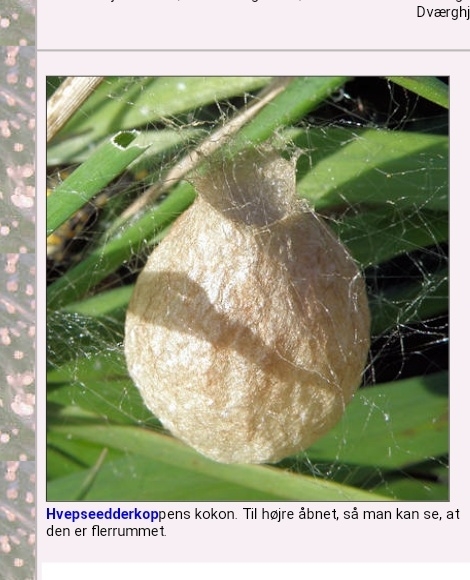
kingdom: Animalia
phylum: Arthropoda
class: Arachnida
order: Araneae
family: Araneidae
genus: Argiope
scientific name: Argiope bruennichi
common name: Hvepseedderkop
